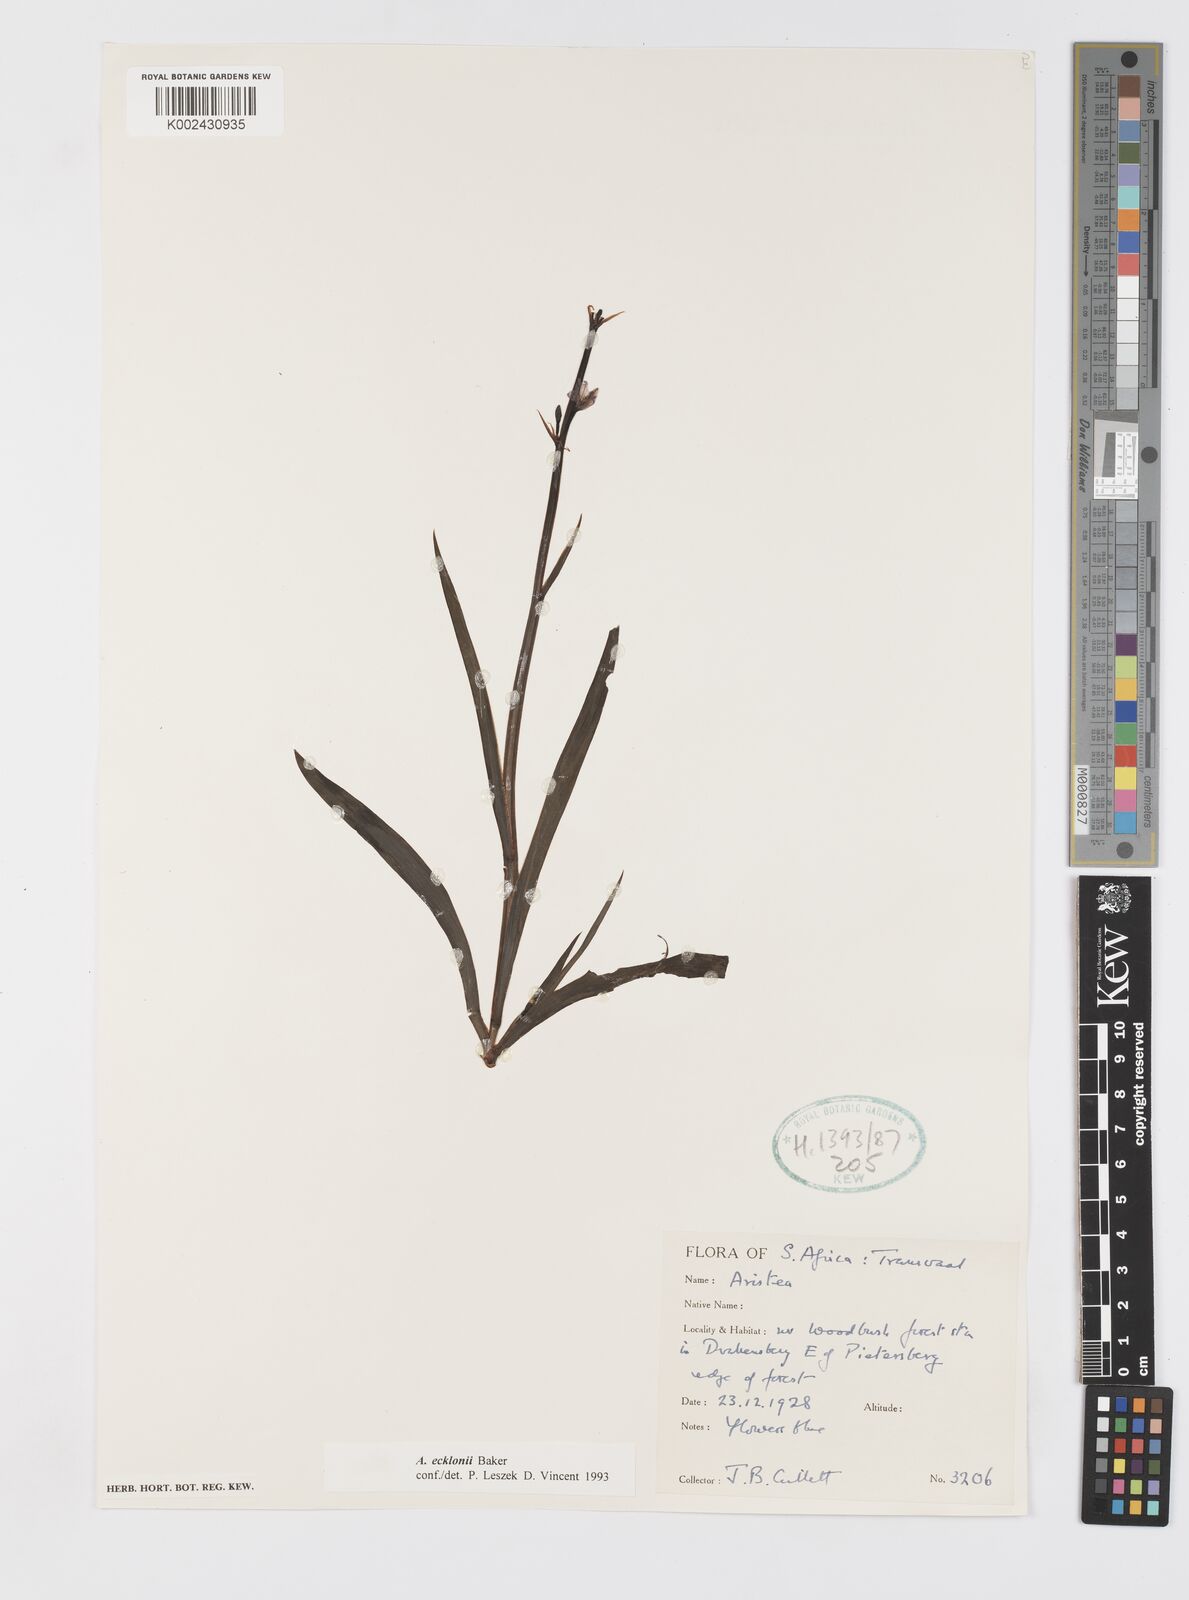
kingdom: Plantae
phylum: Tracheophyta
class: Liliopsida
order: Asparagales
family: Iridaceae
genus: Aristea
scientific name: Aristea ecklonii
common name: Blue corn-lily
